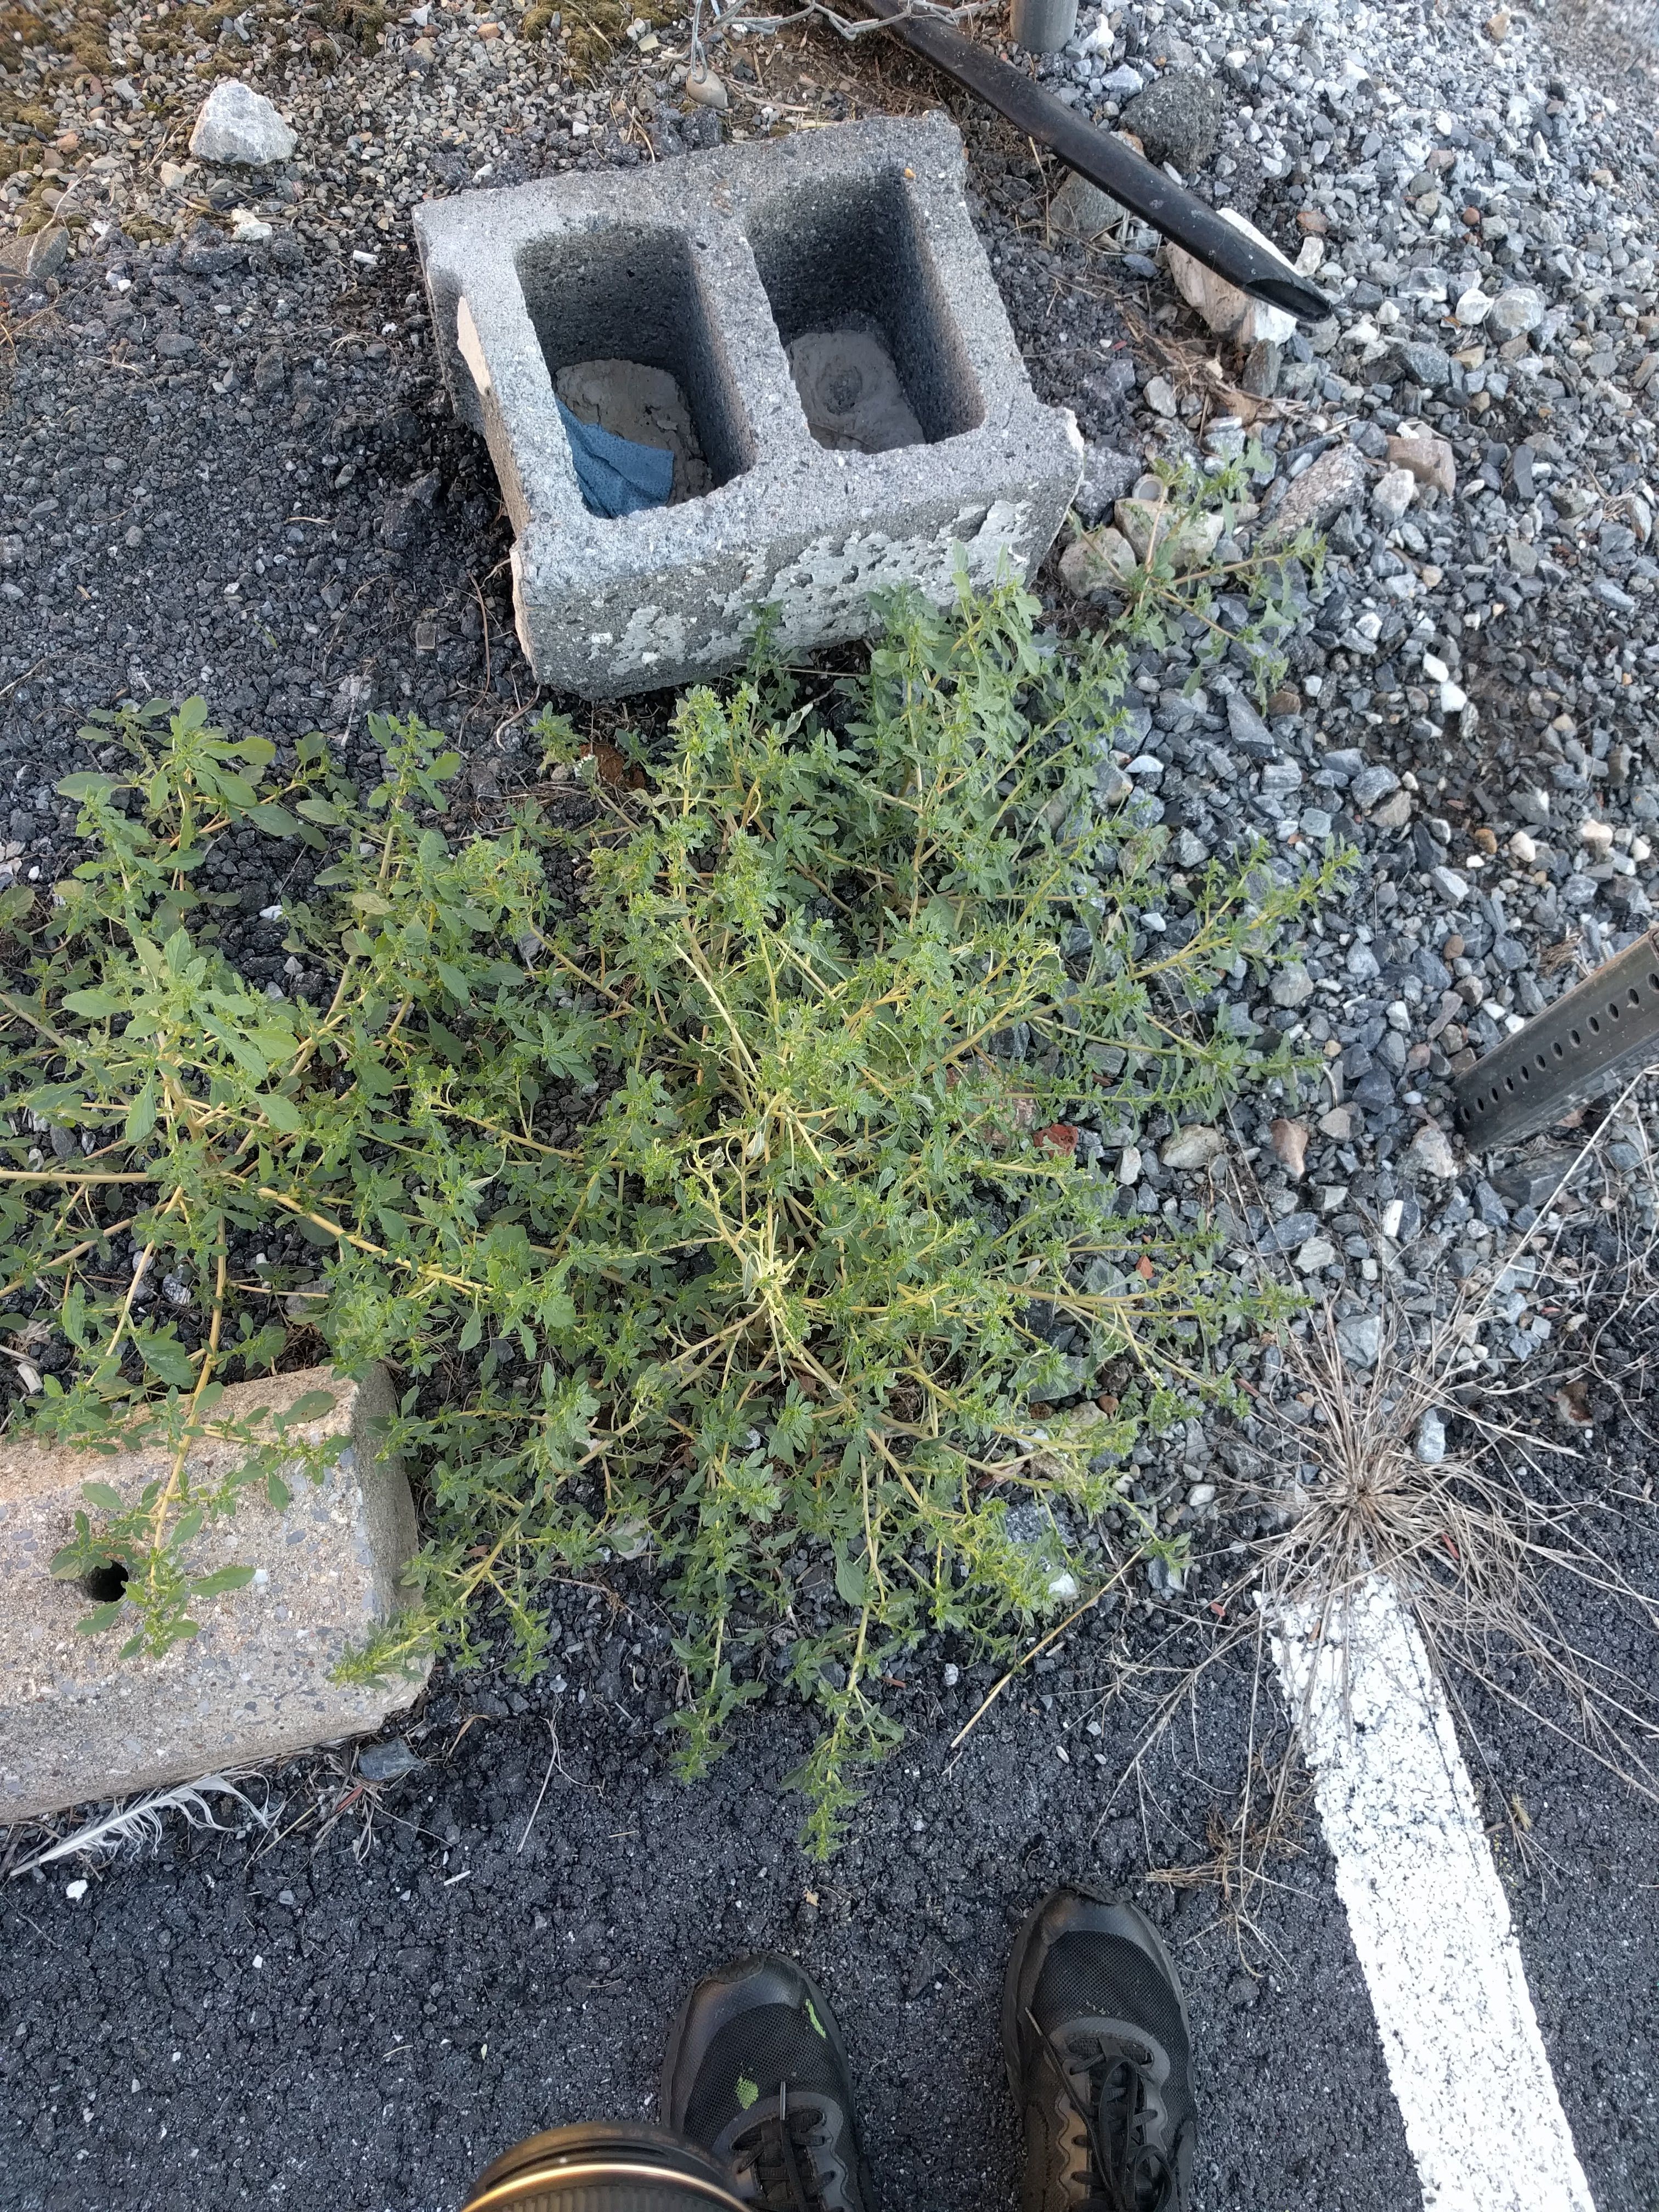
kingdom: Plantae
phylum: Tracheophyta
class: Magnoliopsida
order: Caryophyllales
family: Amaranthaceae
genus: Amaranthus
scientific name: Amaranthus albus
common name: White pigweed
